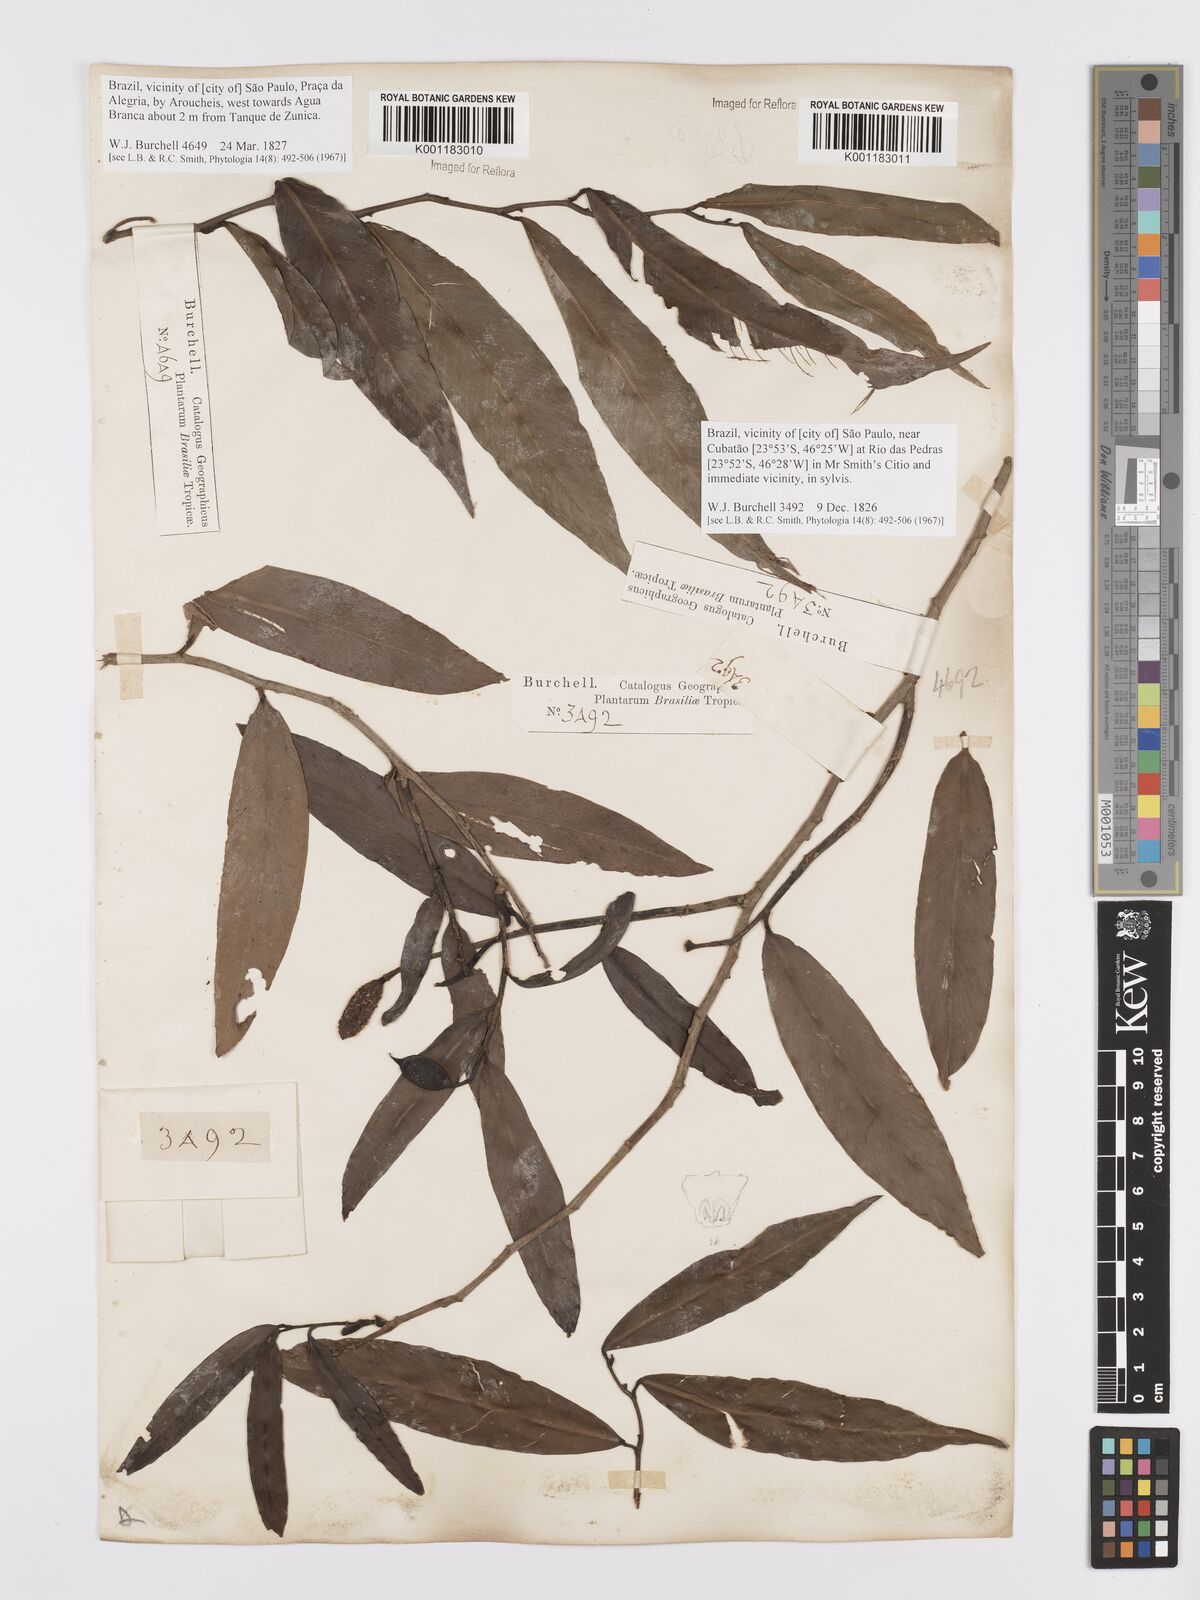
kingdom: Plantae
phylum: Tracheophyta
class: Liliopsida
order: Alismatales
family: Araceae
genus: Heteropsis
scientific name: Heteropsis salicifolia
